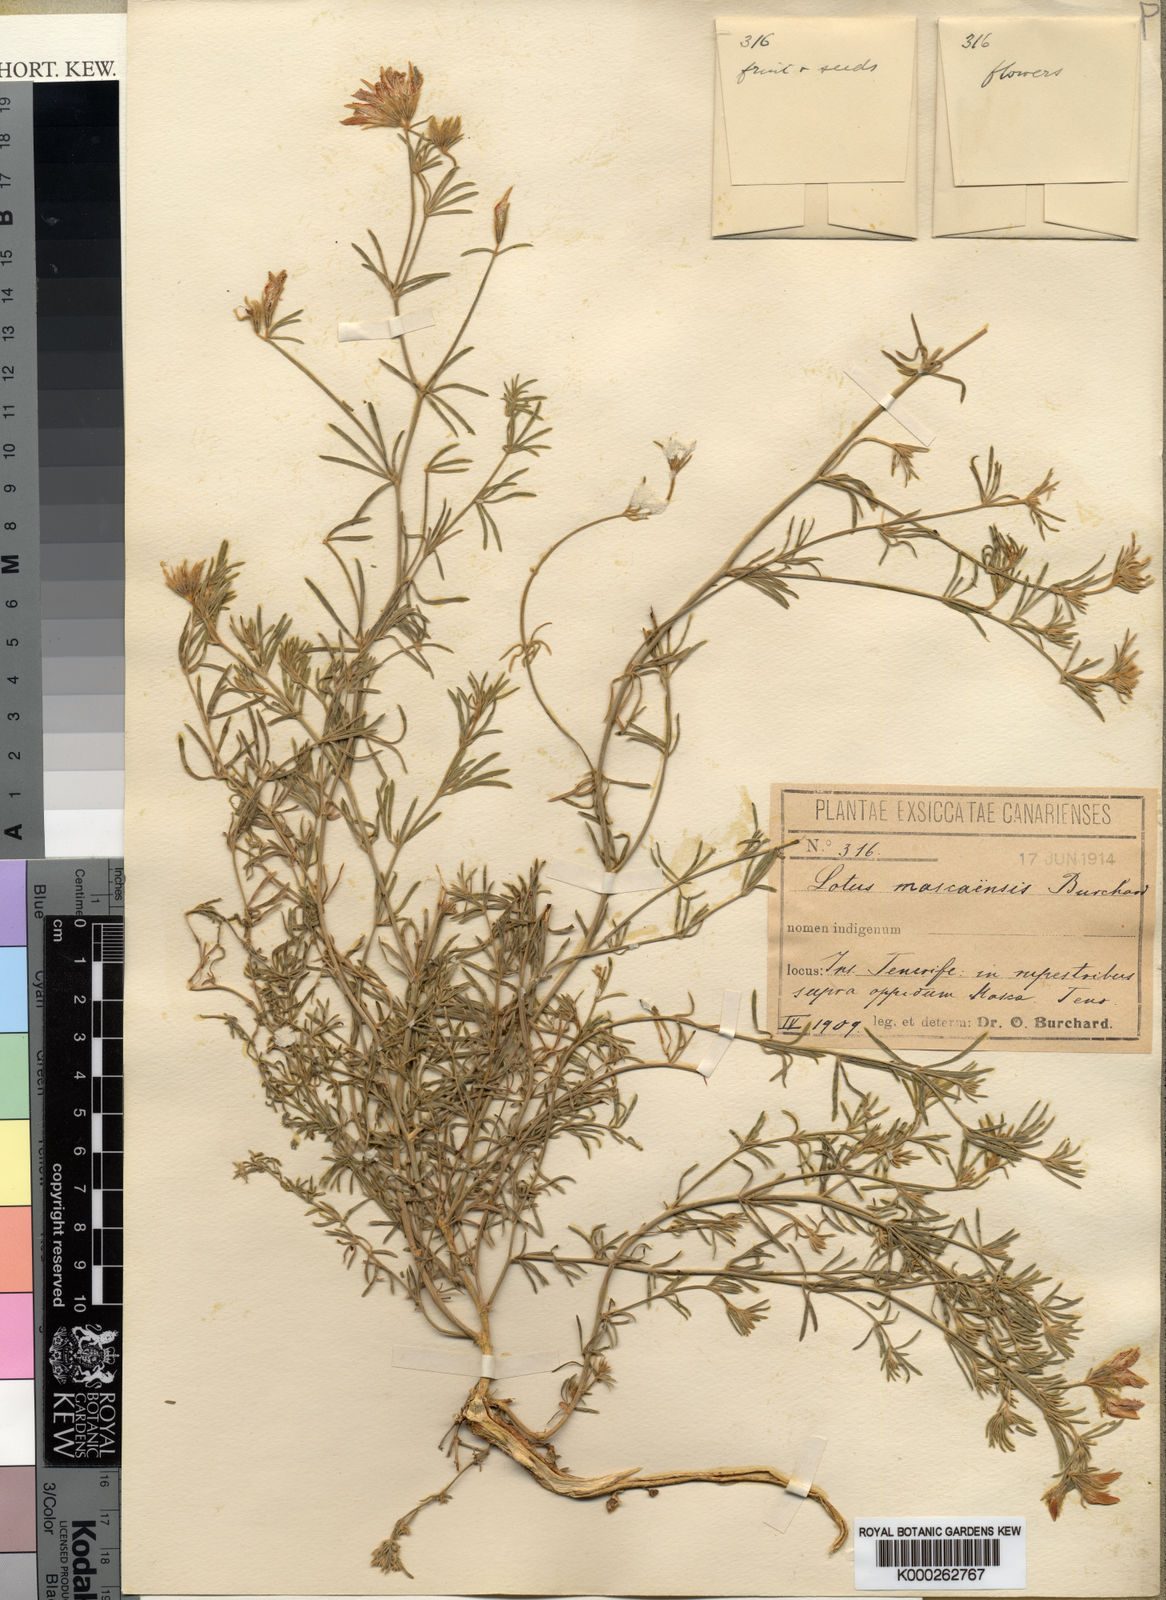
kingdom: Plantae
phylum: Tracheophyta
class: Magnoliopsida
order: Fabales
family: Fabaceae
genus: Lotus
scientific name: Lotus mascaensis
